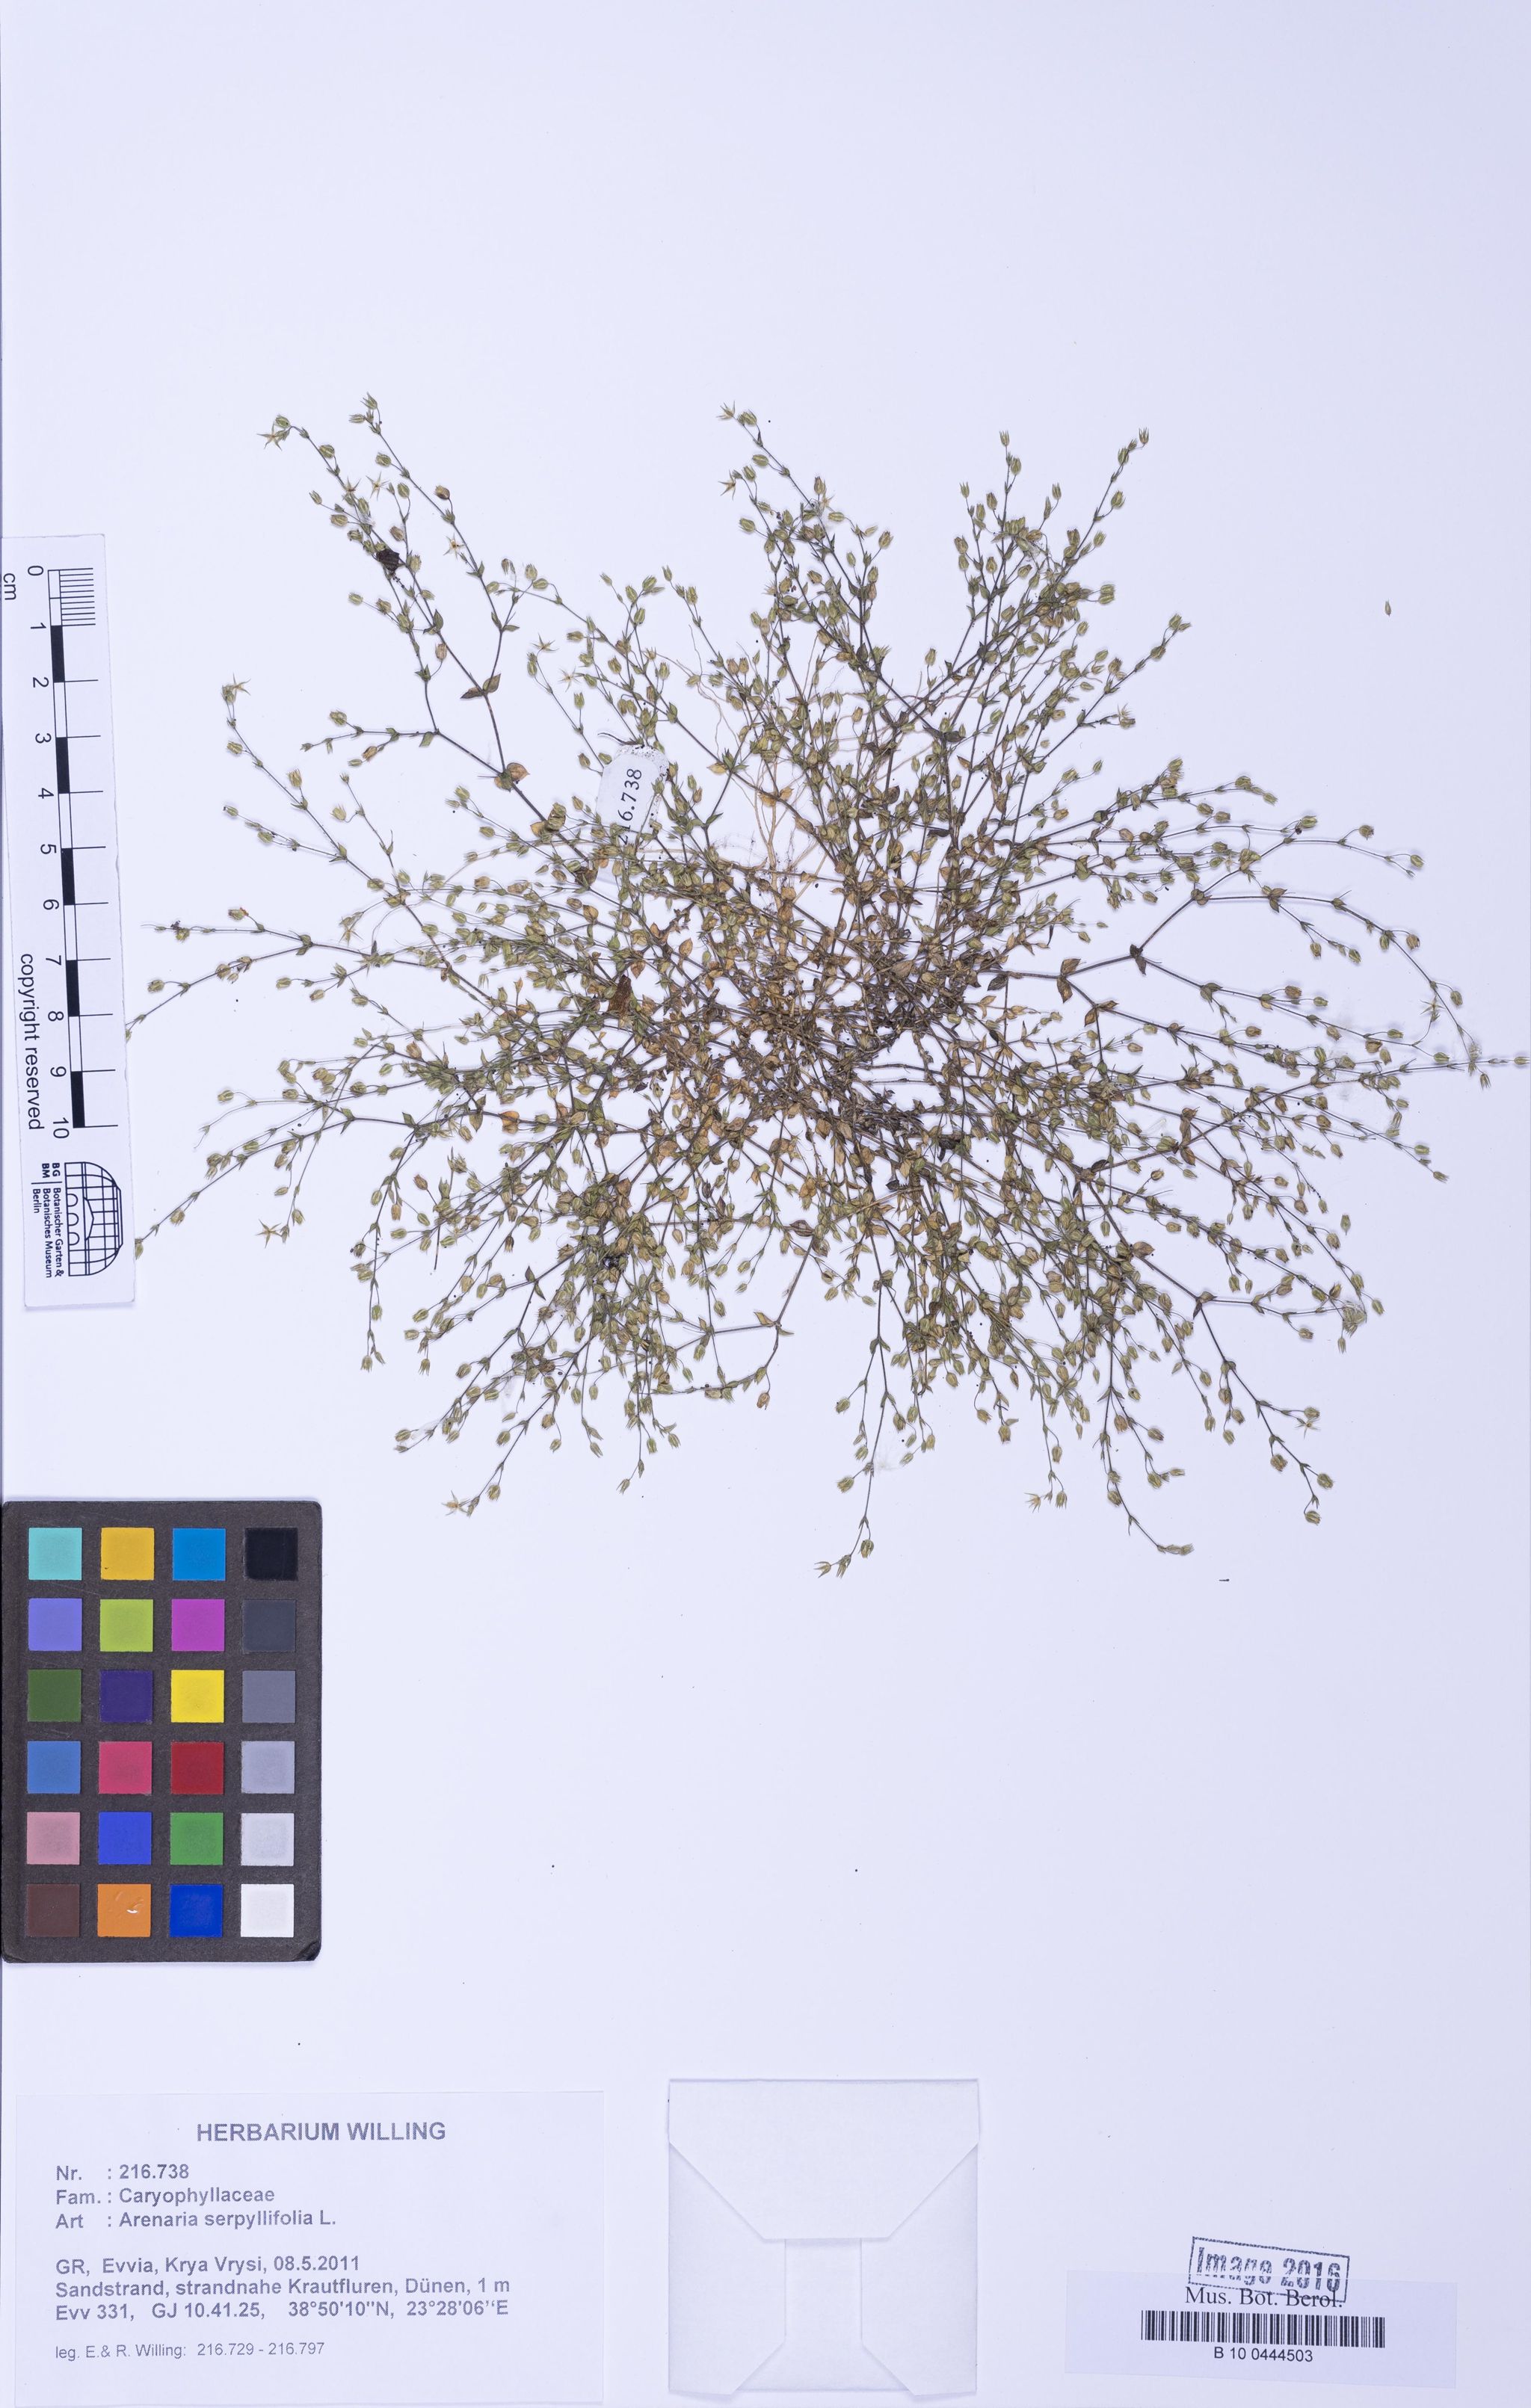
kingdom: Plantae
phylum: Tracheophyta
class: Magnoliopsida
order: Caryophyllales
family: Caryophyllaceae
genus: Arenaria
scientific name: Arenaria serpyllifolia
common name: Thyme-leaved sandwort
